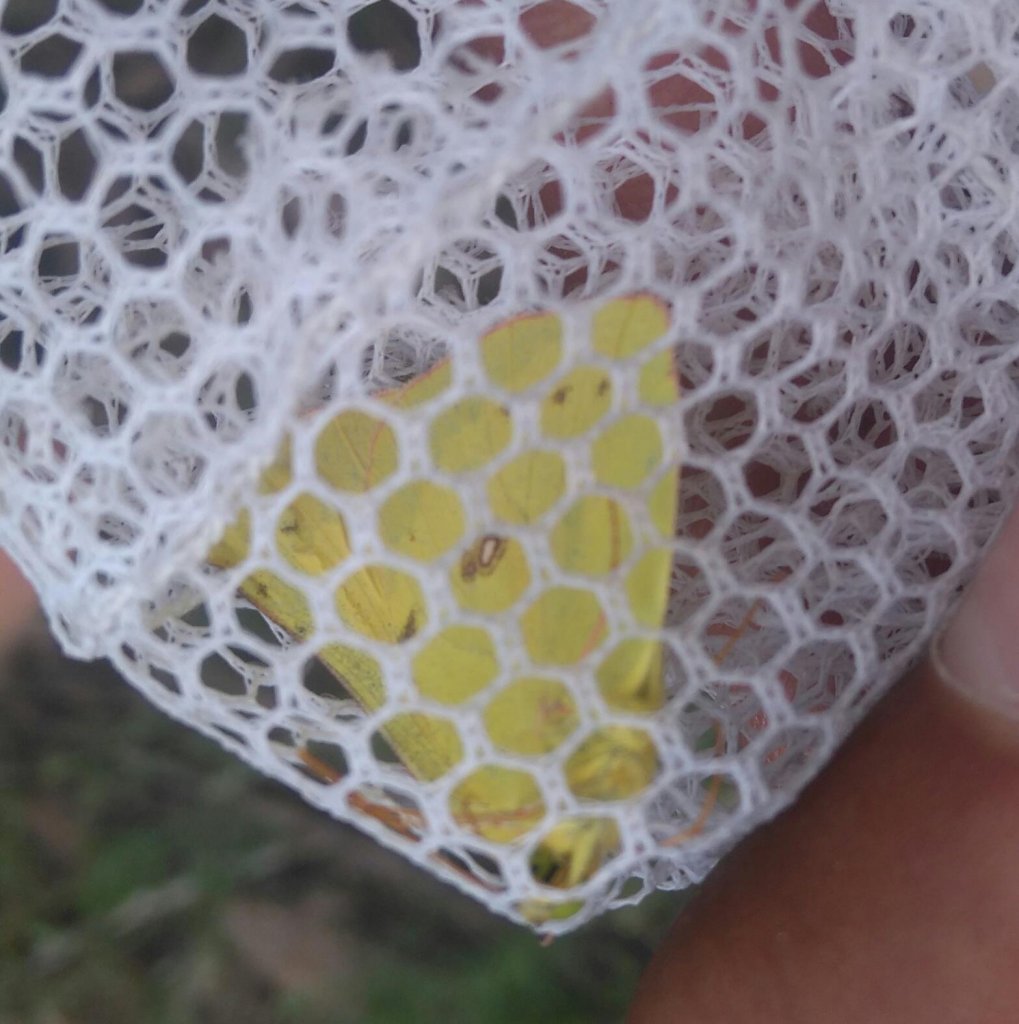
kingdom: Animalia
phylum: Arthropoda
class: Insecta
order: Lepidoptera
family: Pieridae
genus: Zerene
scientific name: Zerene cesonia
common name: Southern Dogface
